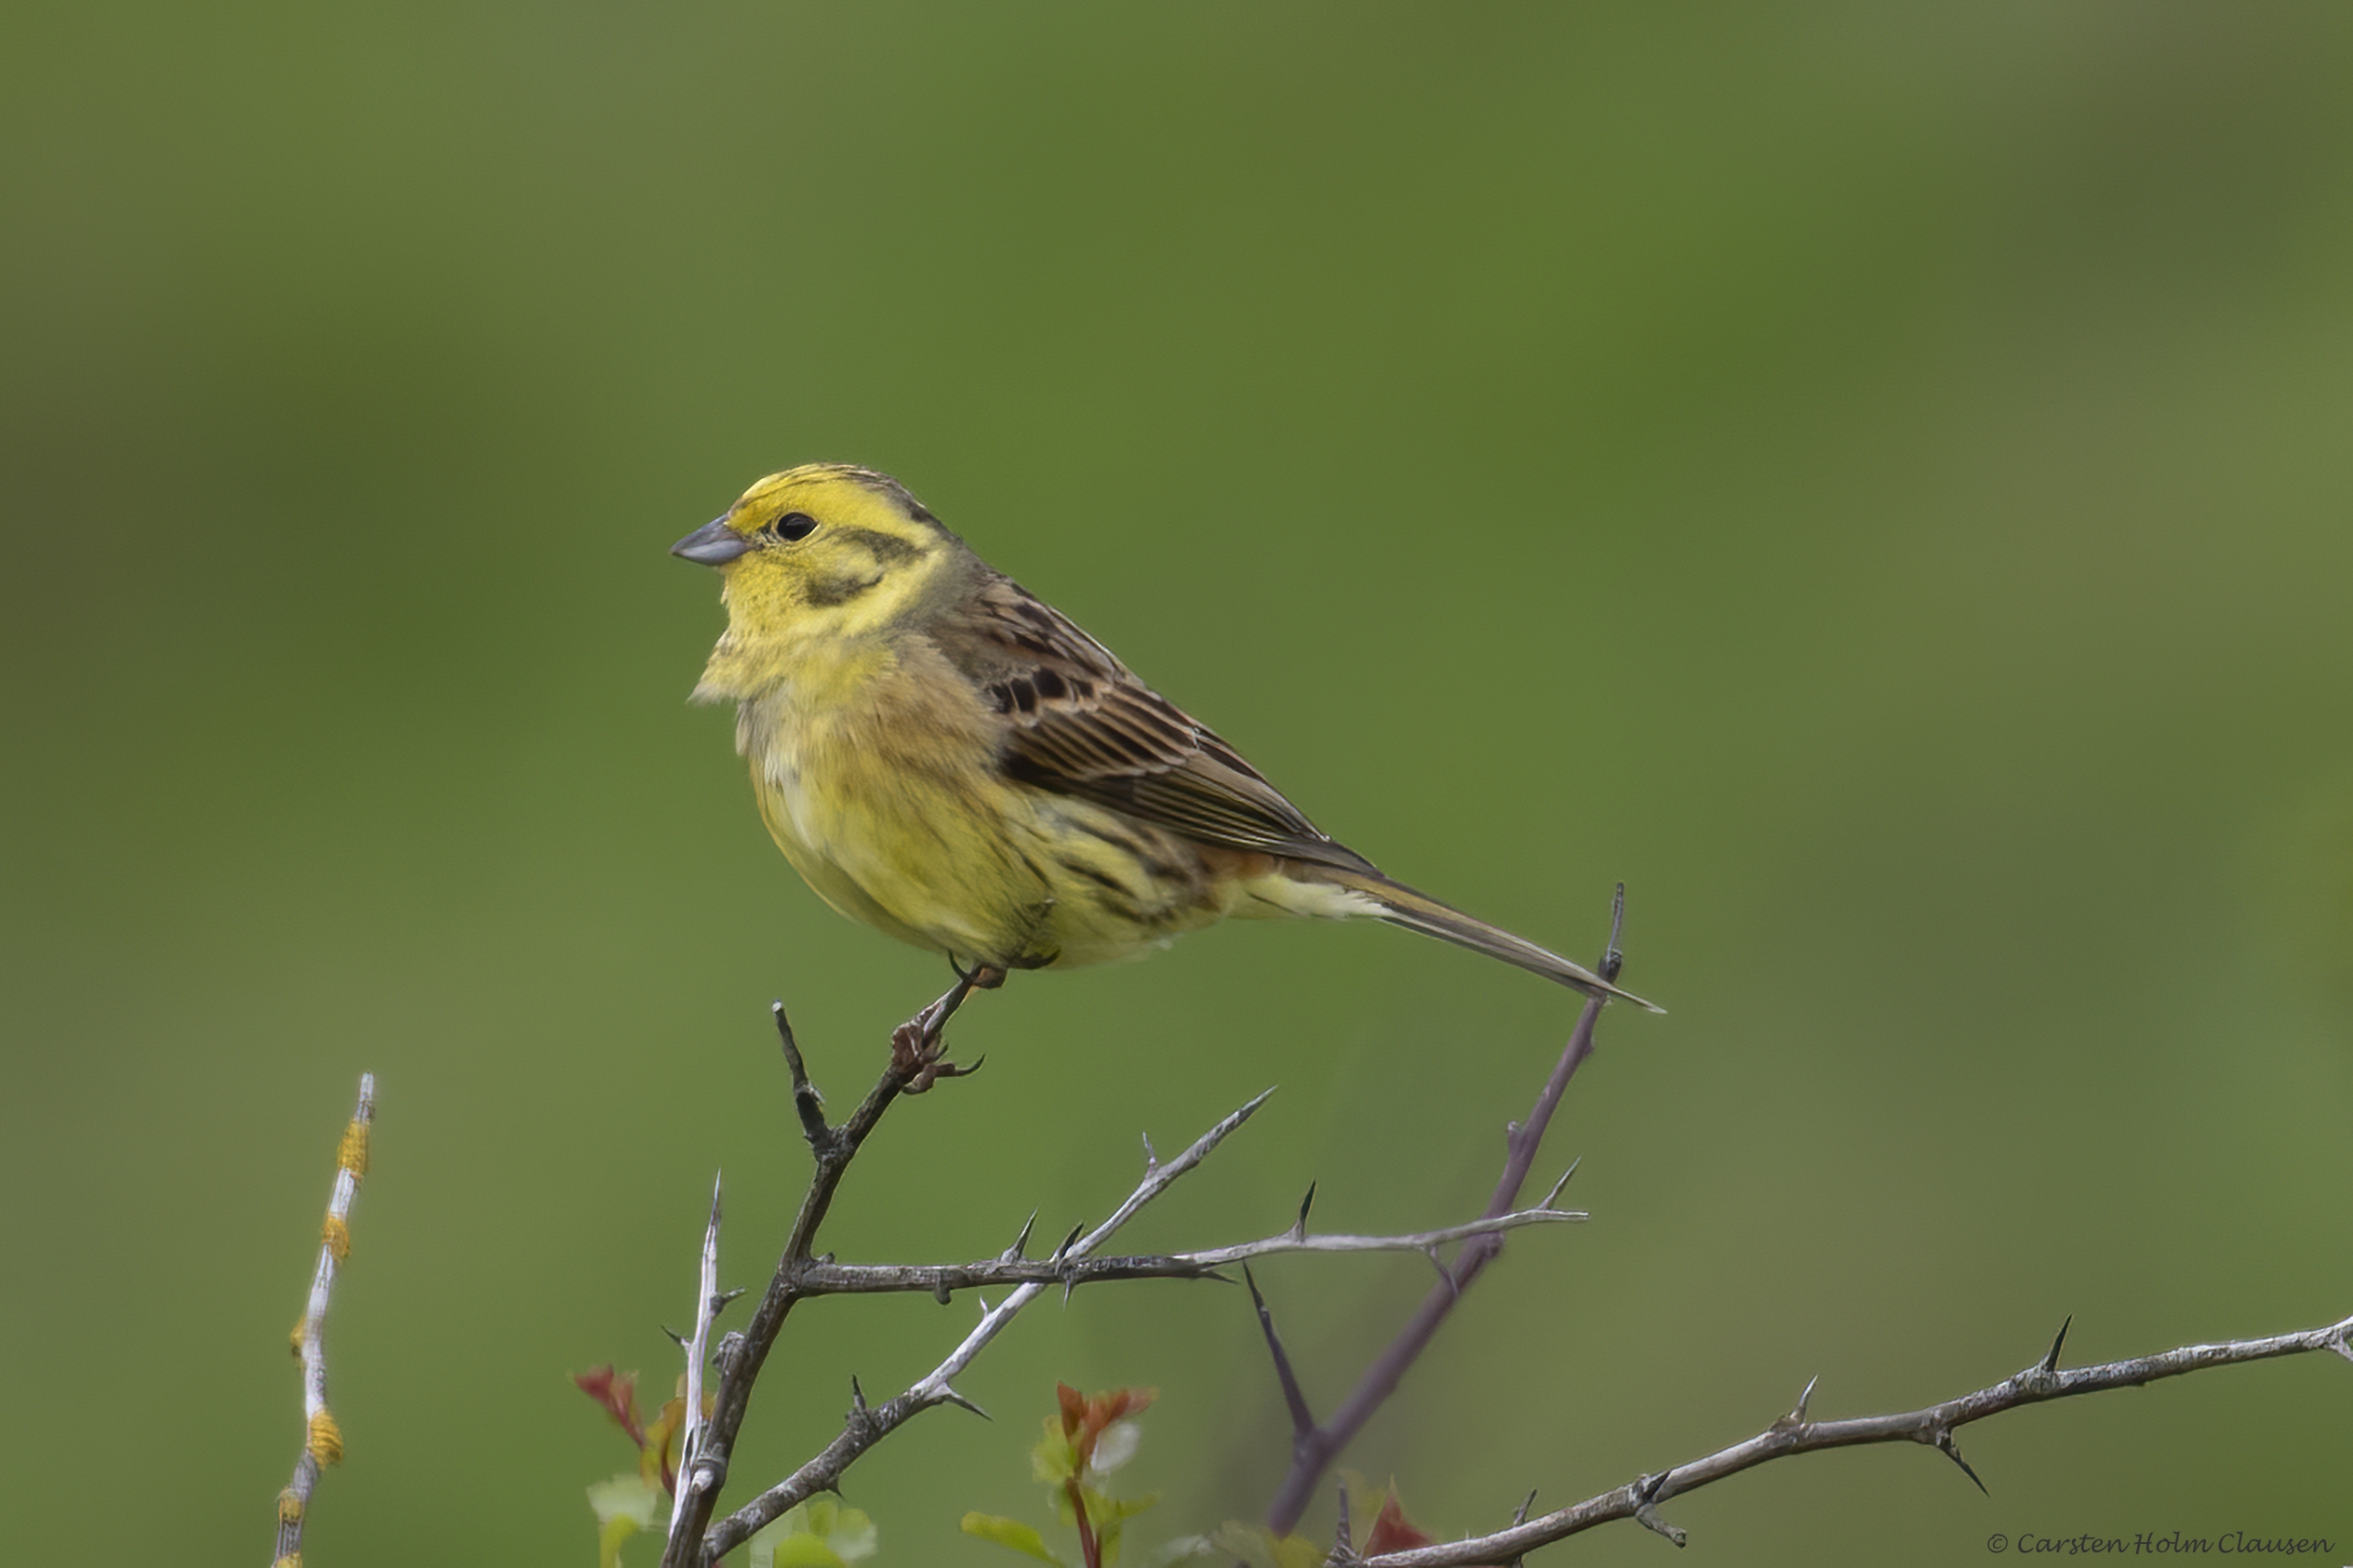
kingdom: Animalia
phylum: Chordata
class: Aves
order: Passeriformes
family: Emberizidae
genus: Emberiza
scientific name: Emberiza citrinella
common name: Gulspurv
